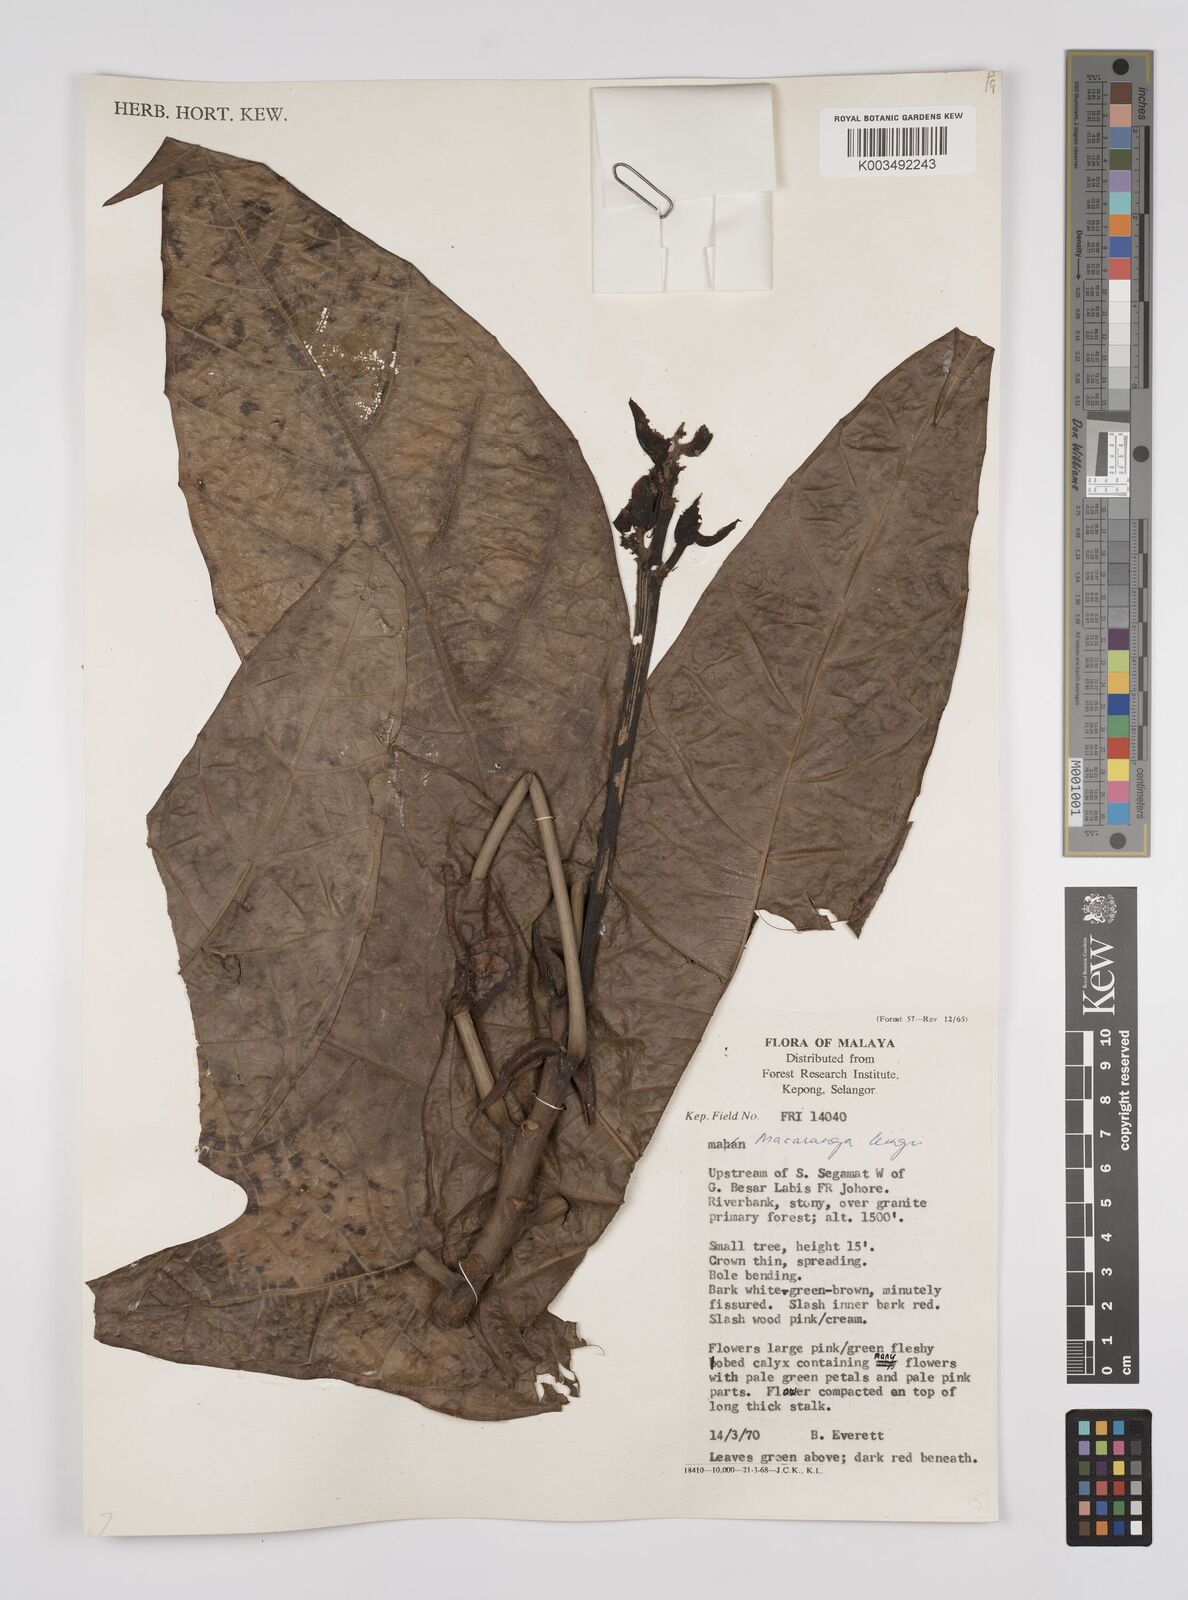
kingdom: Plantae
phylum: Tracheophyta
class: Magnoliopsida
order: Malpighiales
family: Euphorbiaceae
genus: Macaranga
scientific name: Macaranga kingii
